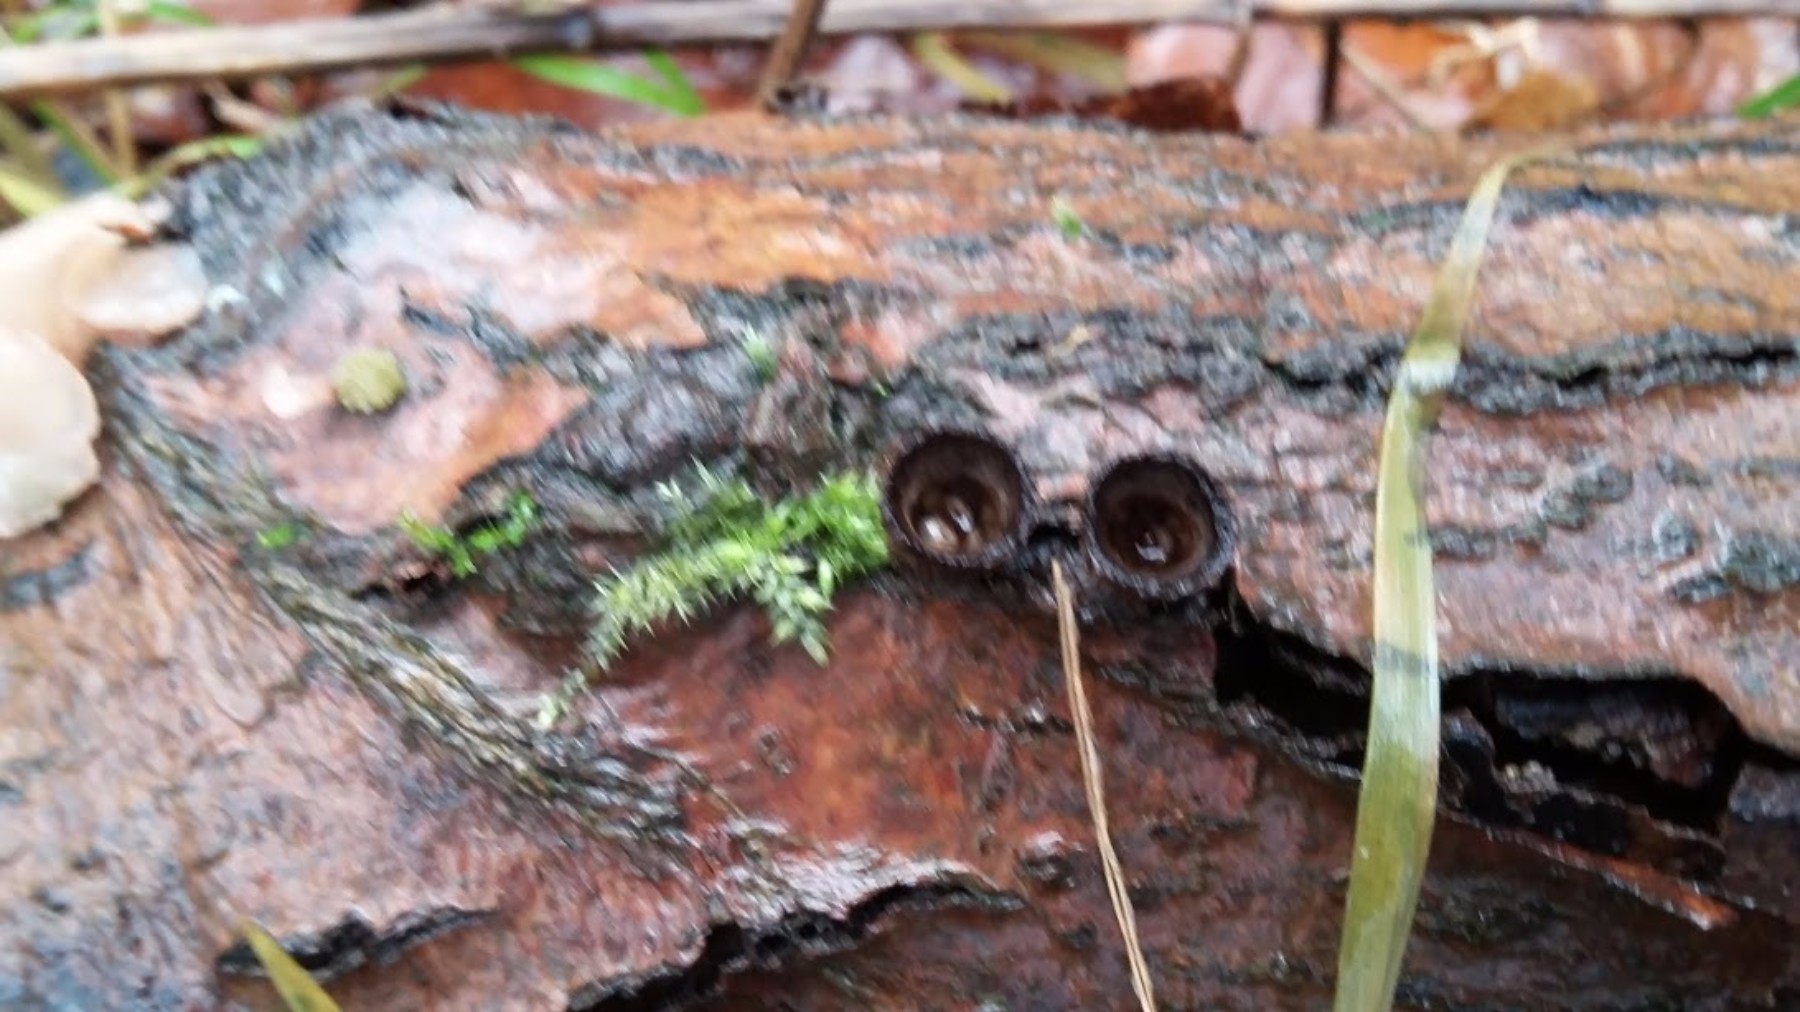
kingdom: Fungi
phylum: Basidiomycota
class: Agaricomycetes
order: Agaricales
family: Agaricaceae
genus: Cyathus
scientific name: Cyathus striatus
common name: stribet redesvamp
